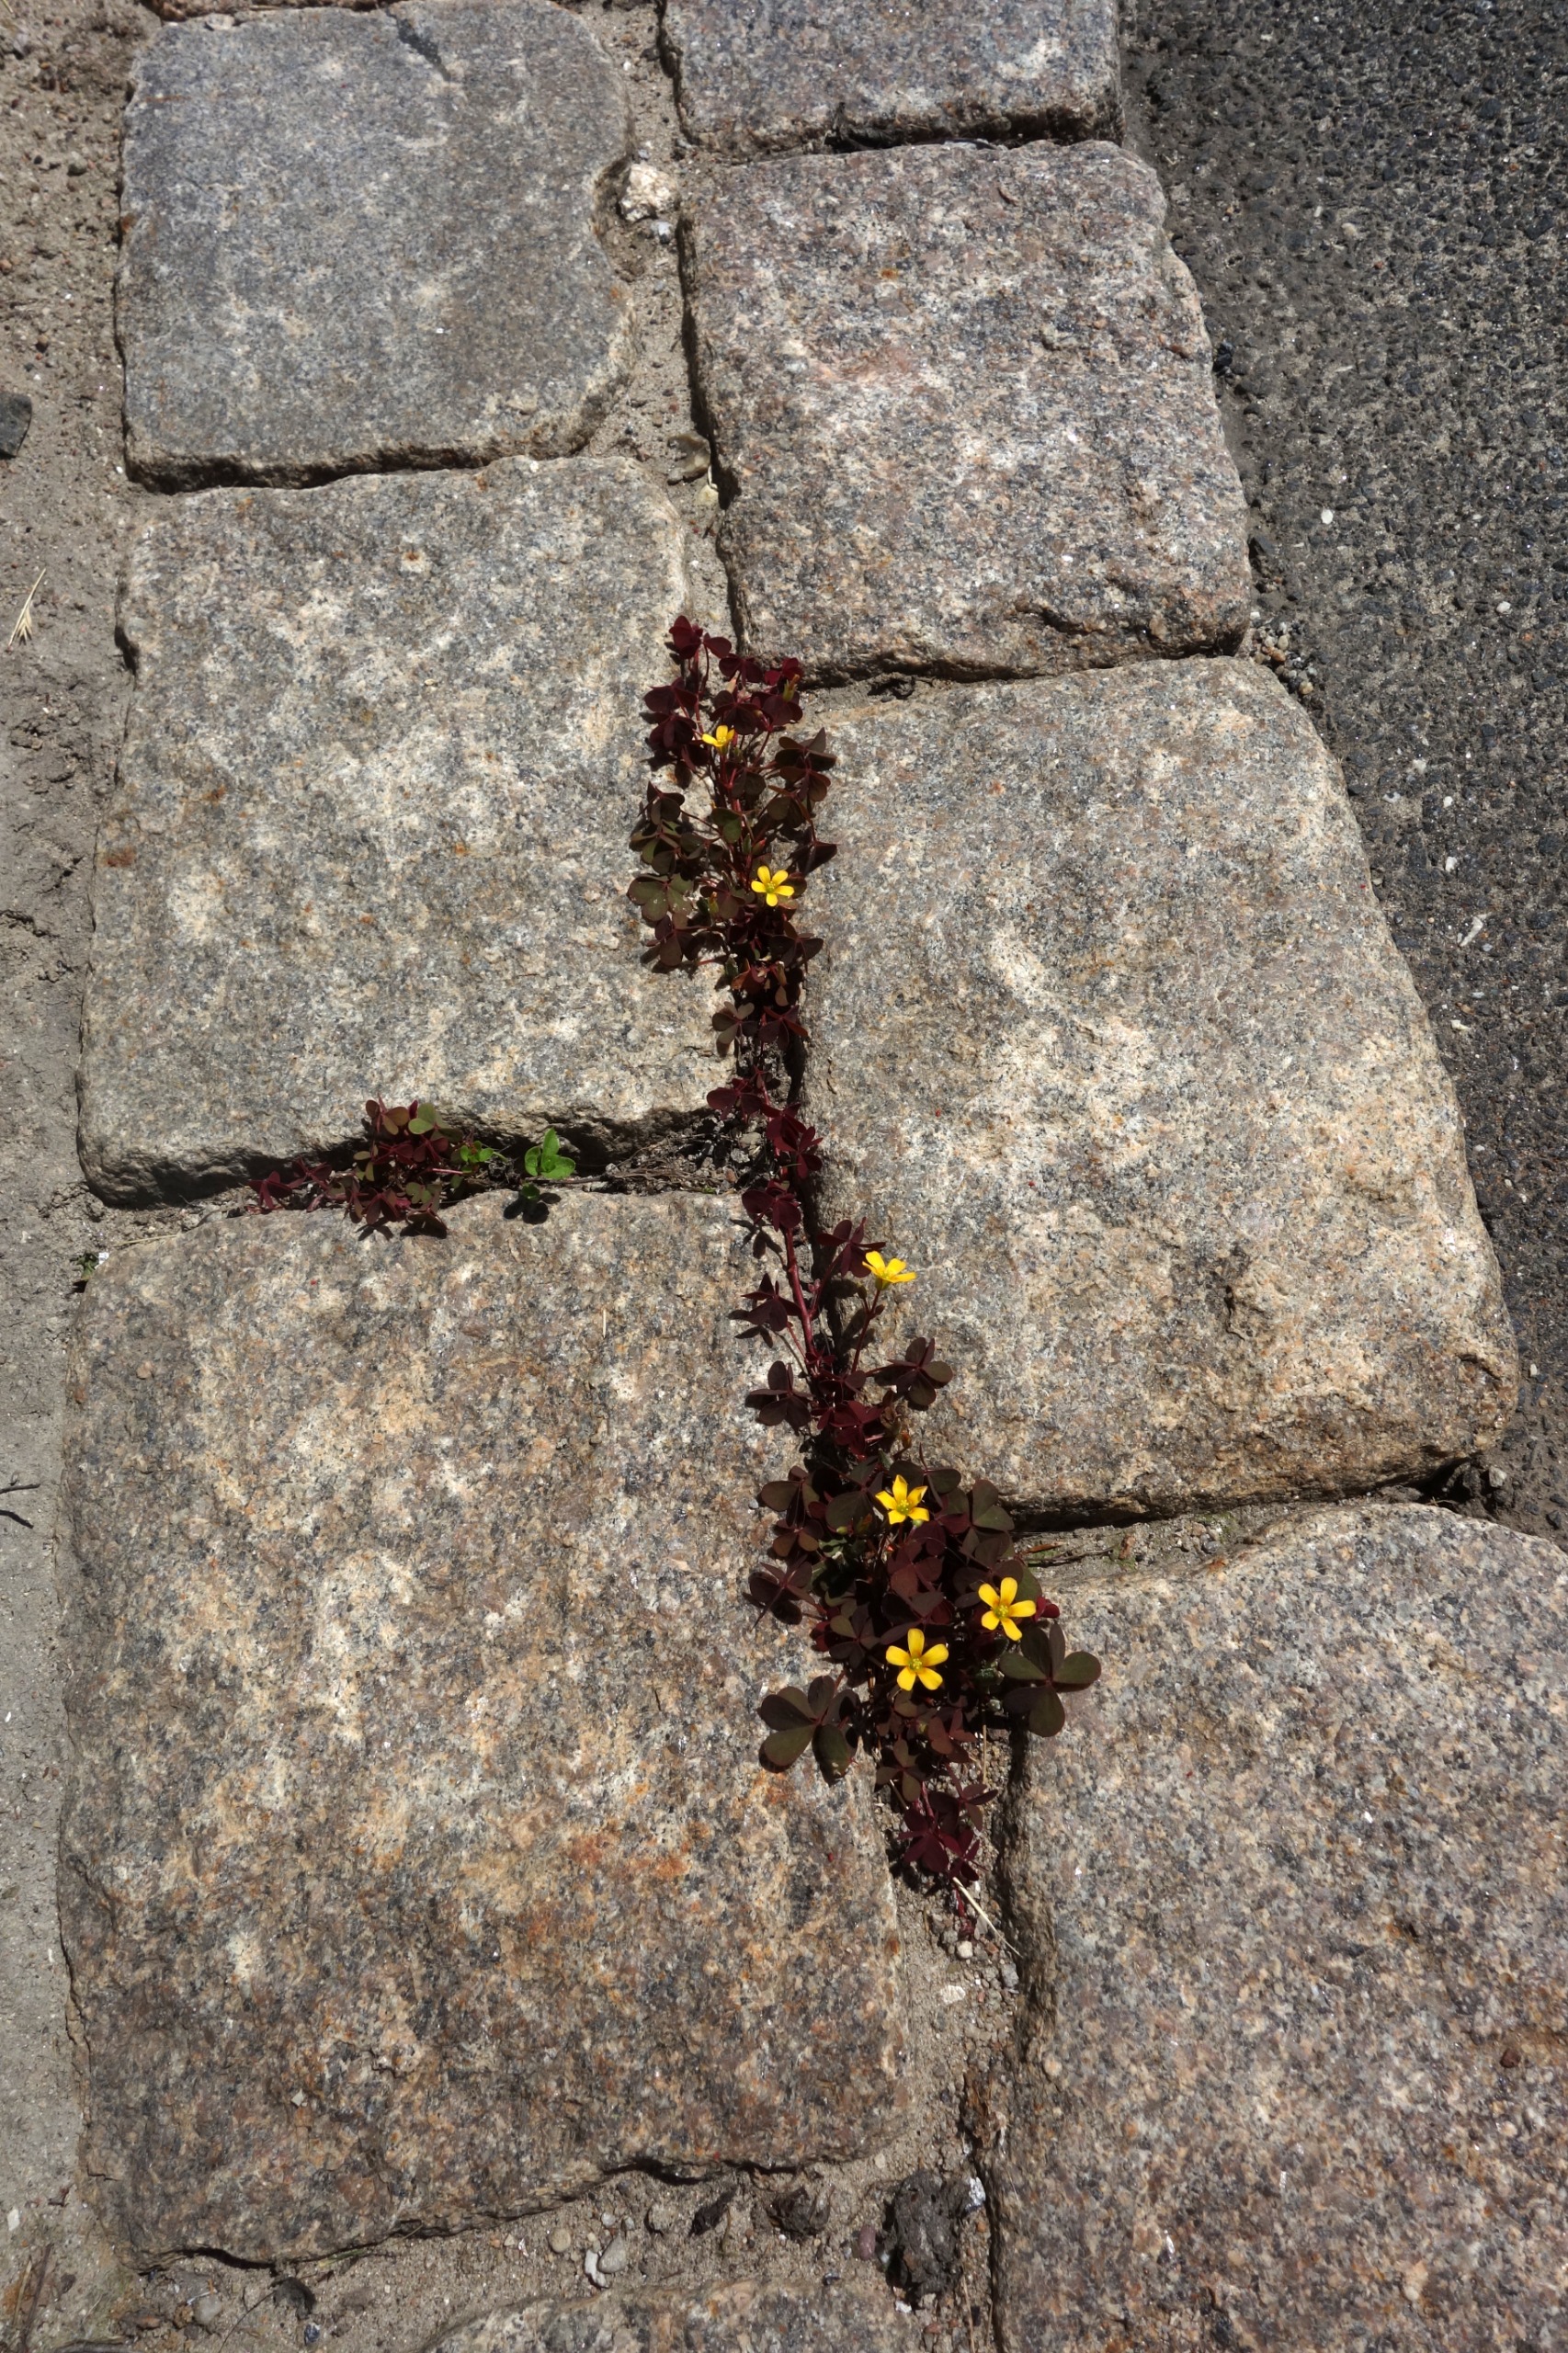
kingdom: Plantae
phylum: Tracheophyta
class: Magnoliopsida
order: Oxalidales
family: Oxalidaceae
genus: Oxalis
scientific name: Oxalis corniculata
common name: Nedliggende surkløver
